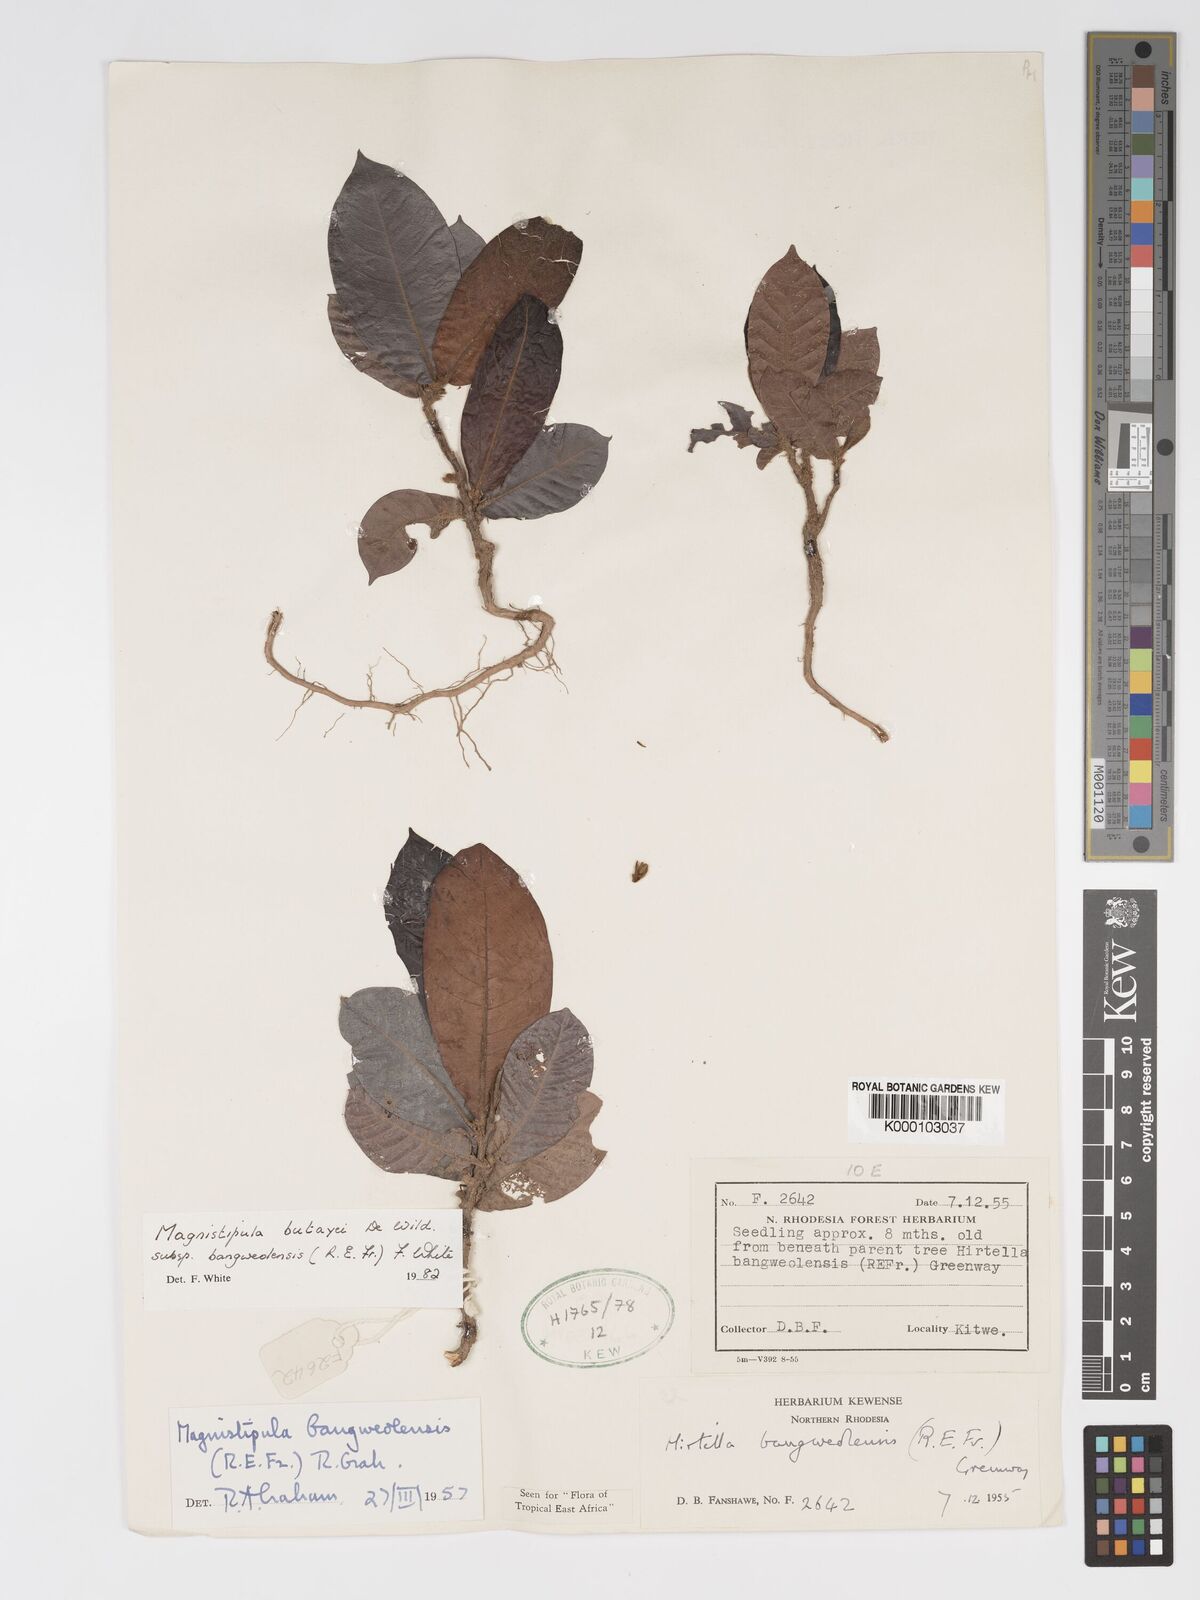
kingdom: Plantae
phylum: Tracheophyta
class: Magnoliopsida
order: Malpighiales
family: Chrysobalanaceae
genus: Magnistipula
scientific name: Magnistipula butayei
